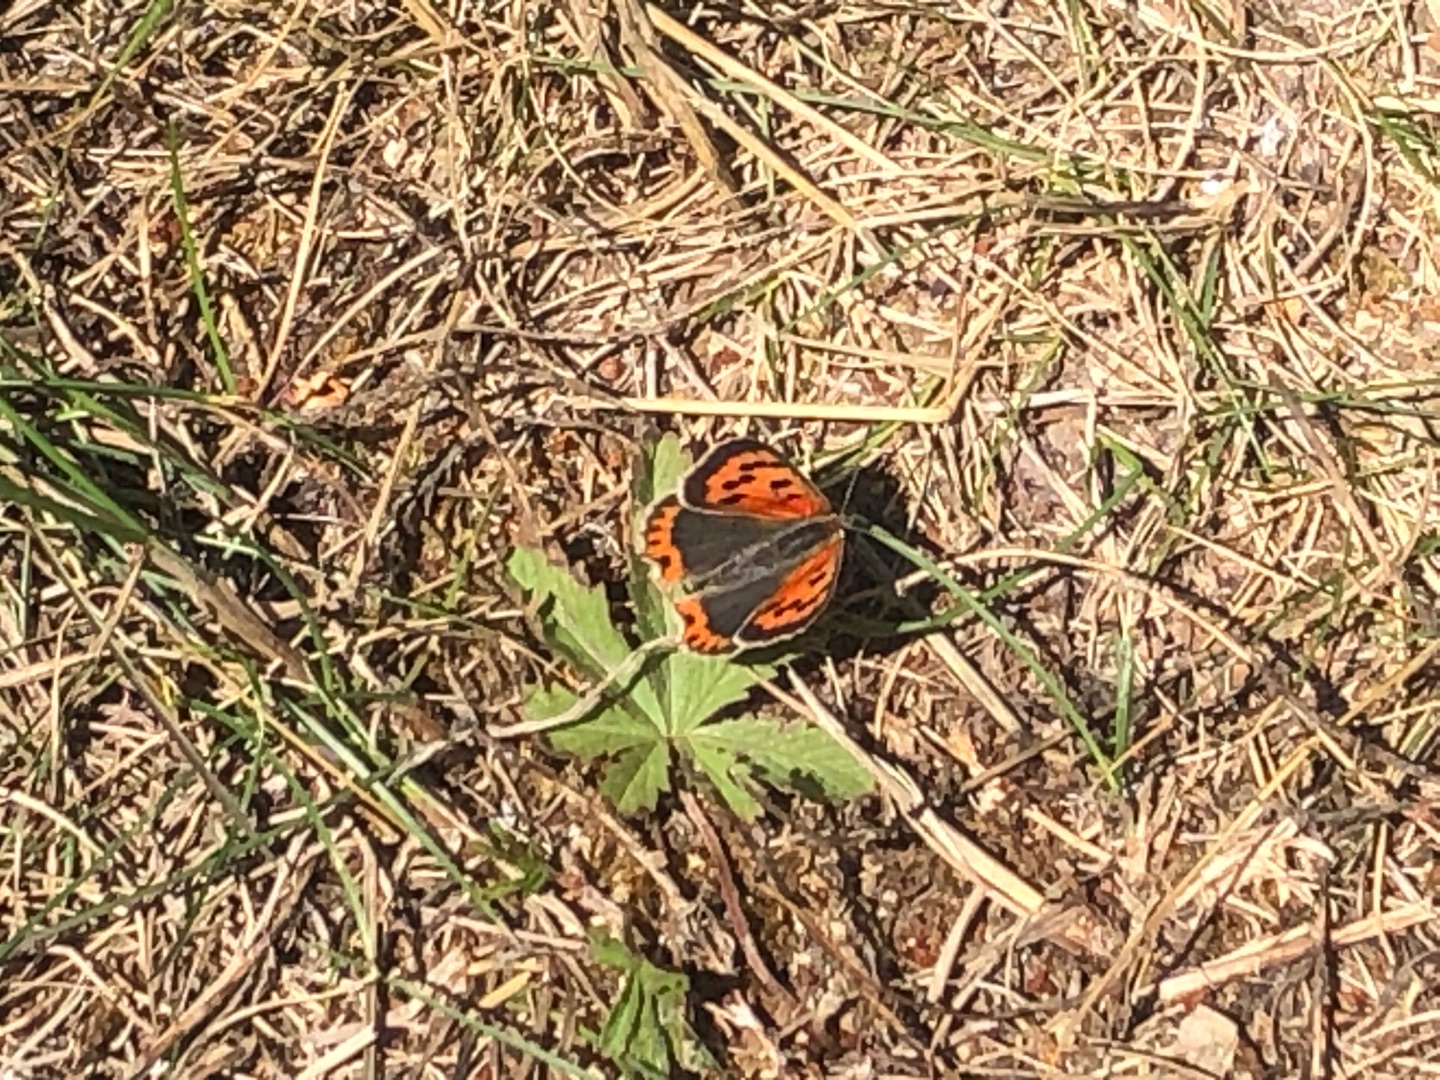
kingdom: Animalia
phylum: Arthropoda
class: Insecta
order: Lepidoptera
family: Lycaenidae
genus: Lycaena
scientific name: Lycaena phlaeas
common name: Lille ildfugl
